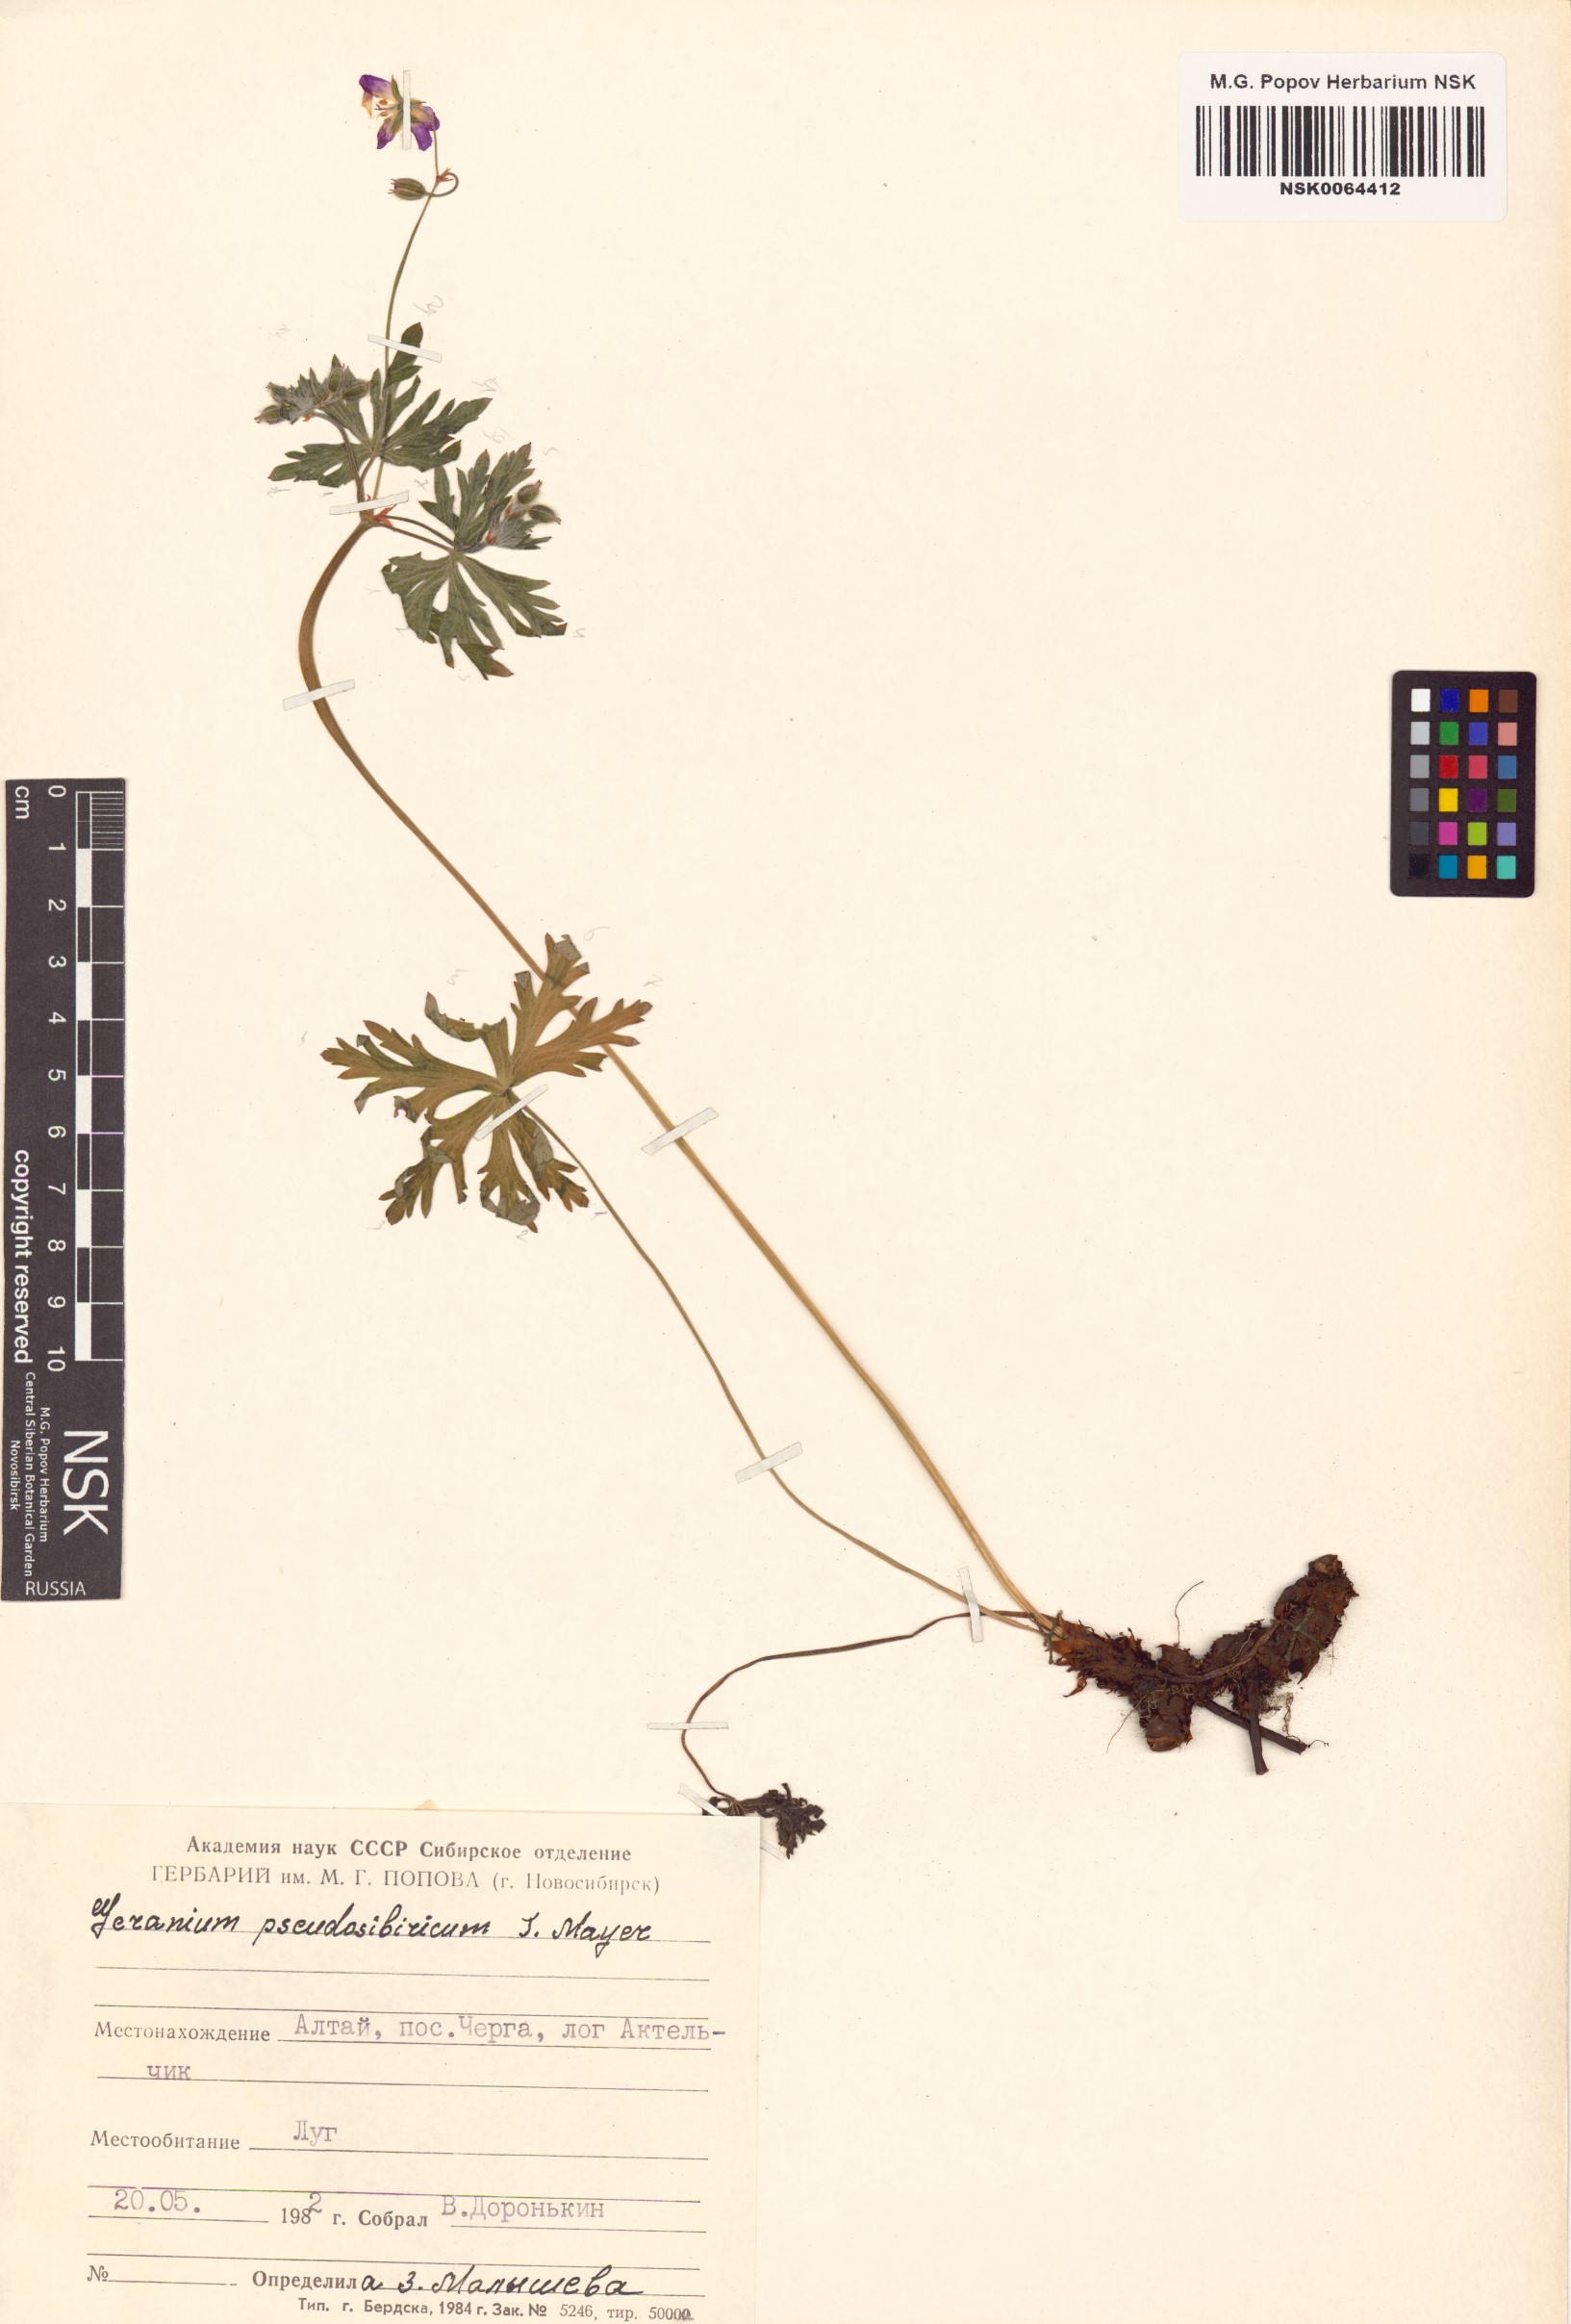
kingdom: Plantae
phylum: Tracheophyta
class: Magnoliopsida
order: Geraniales
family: Geraniaceae
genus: Geranium
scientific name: Geranium pseudosibiricum
